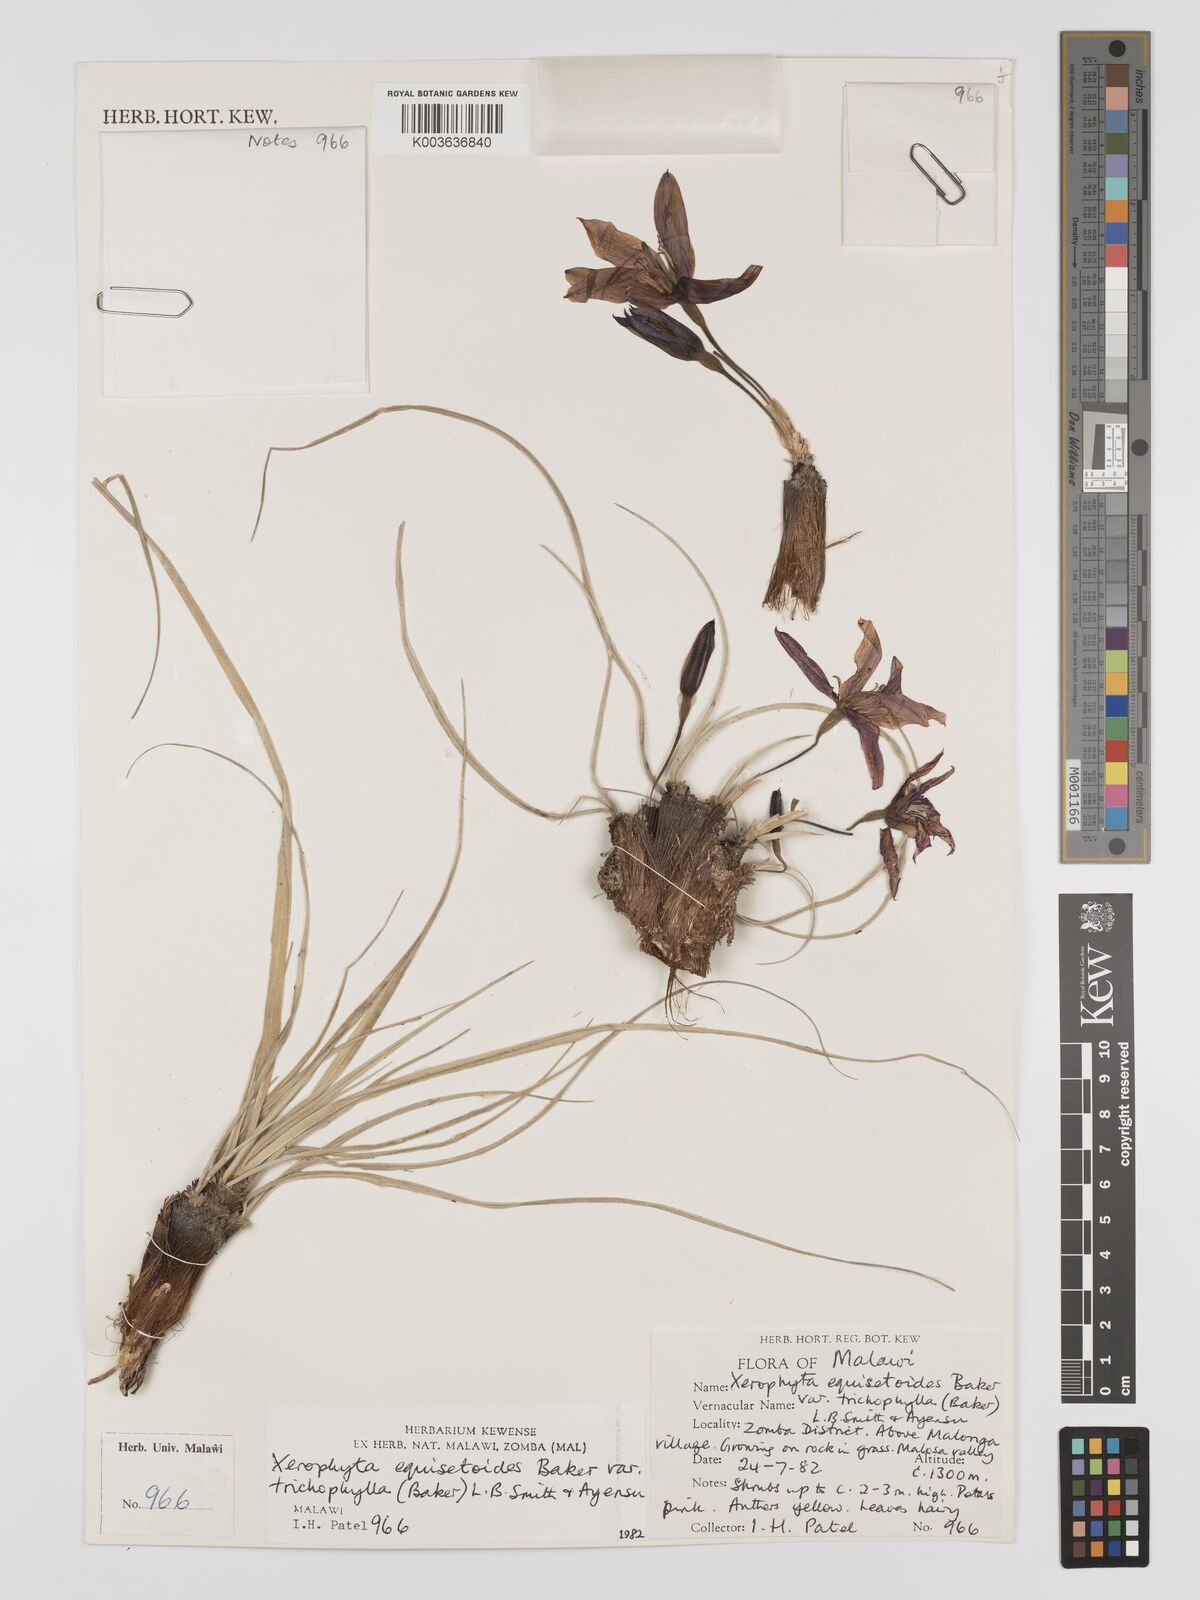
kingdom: Plantae
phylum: Tracheophyta
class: Liliopsida
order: Pandanales
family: Velloziaceae
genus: Xerophyta
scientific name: Xerophyta trichophylla
